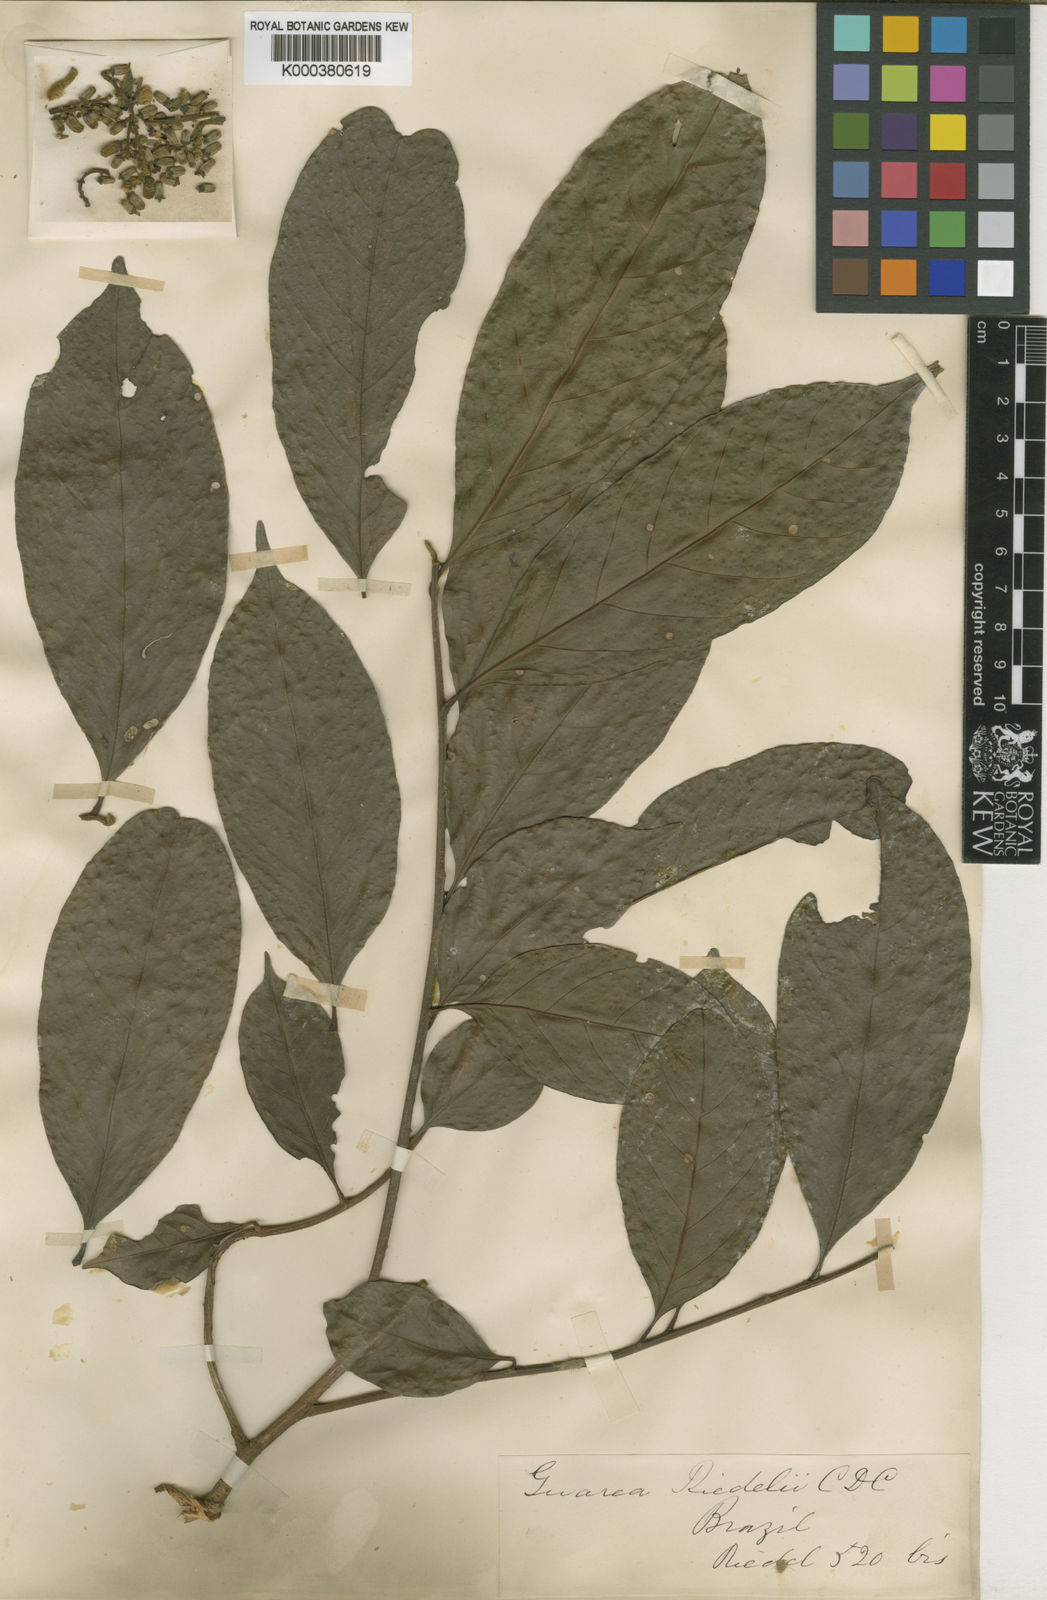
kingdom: Plantae
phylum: Tracheophyta
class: Magnoliopsida
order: Sapindales
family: Meliaceae
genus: Guarea
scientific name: Guarea macrophylla
